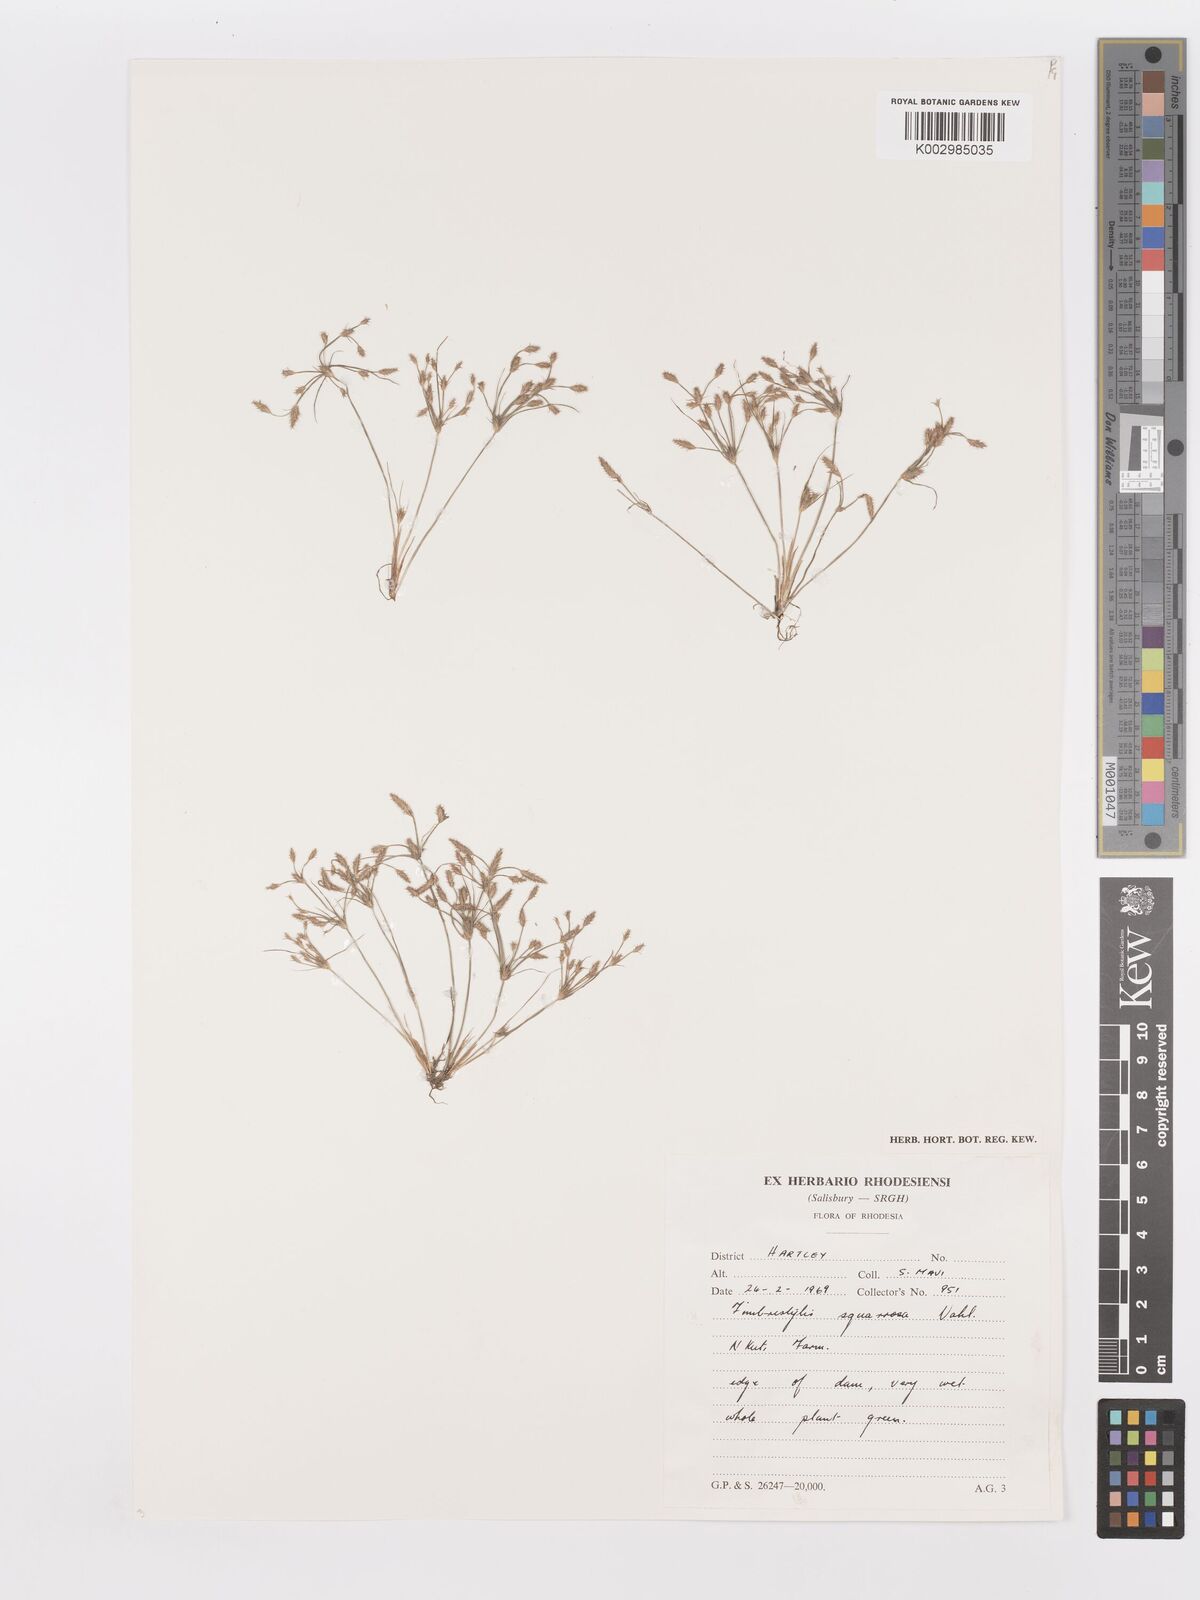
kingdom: Plantae
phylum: Tracheophyta
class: Liliopsida
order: Poales
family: Cyperaceae
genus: Fimbristylis
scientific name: Fimbristylis squarrosa
